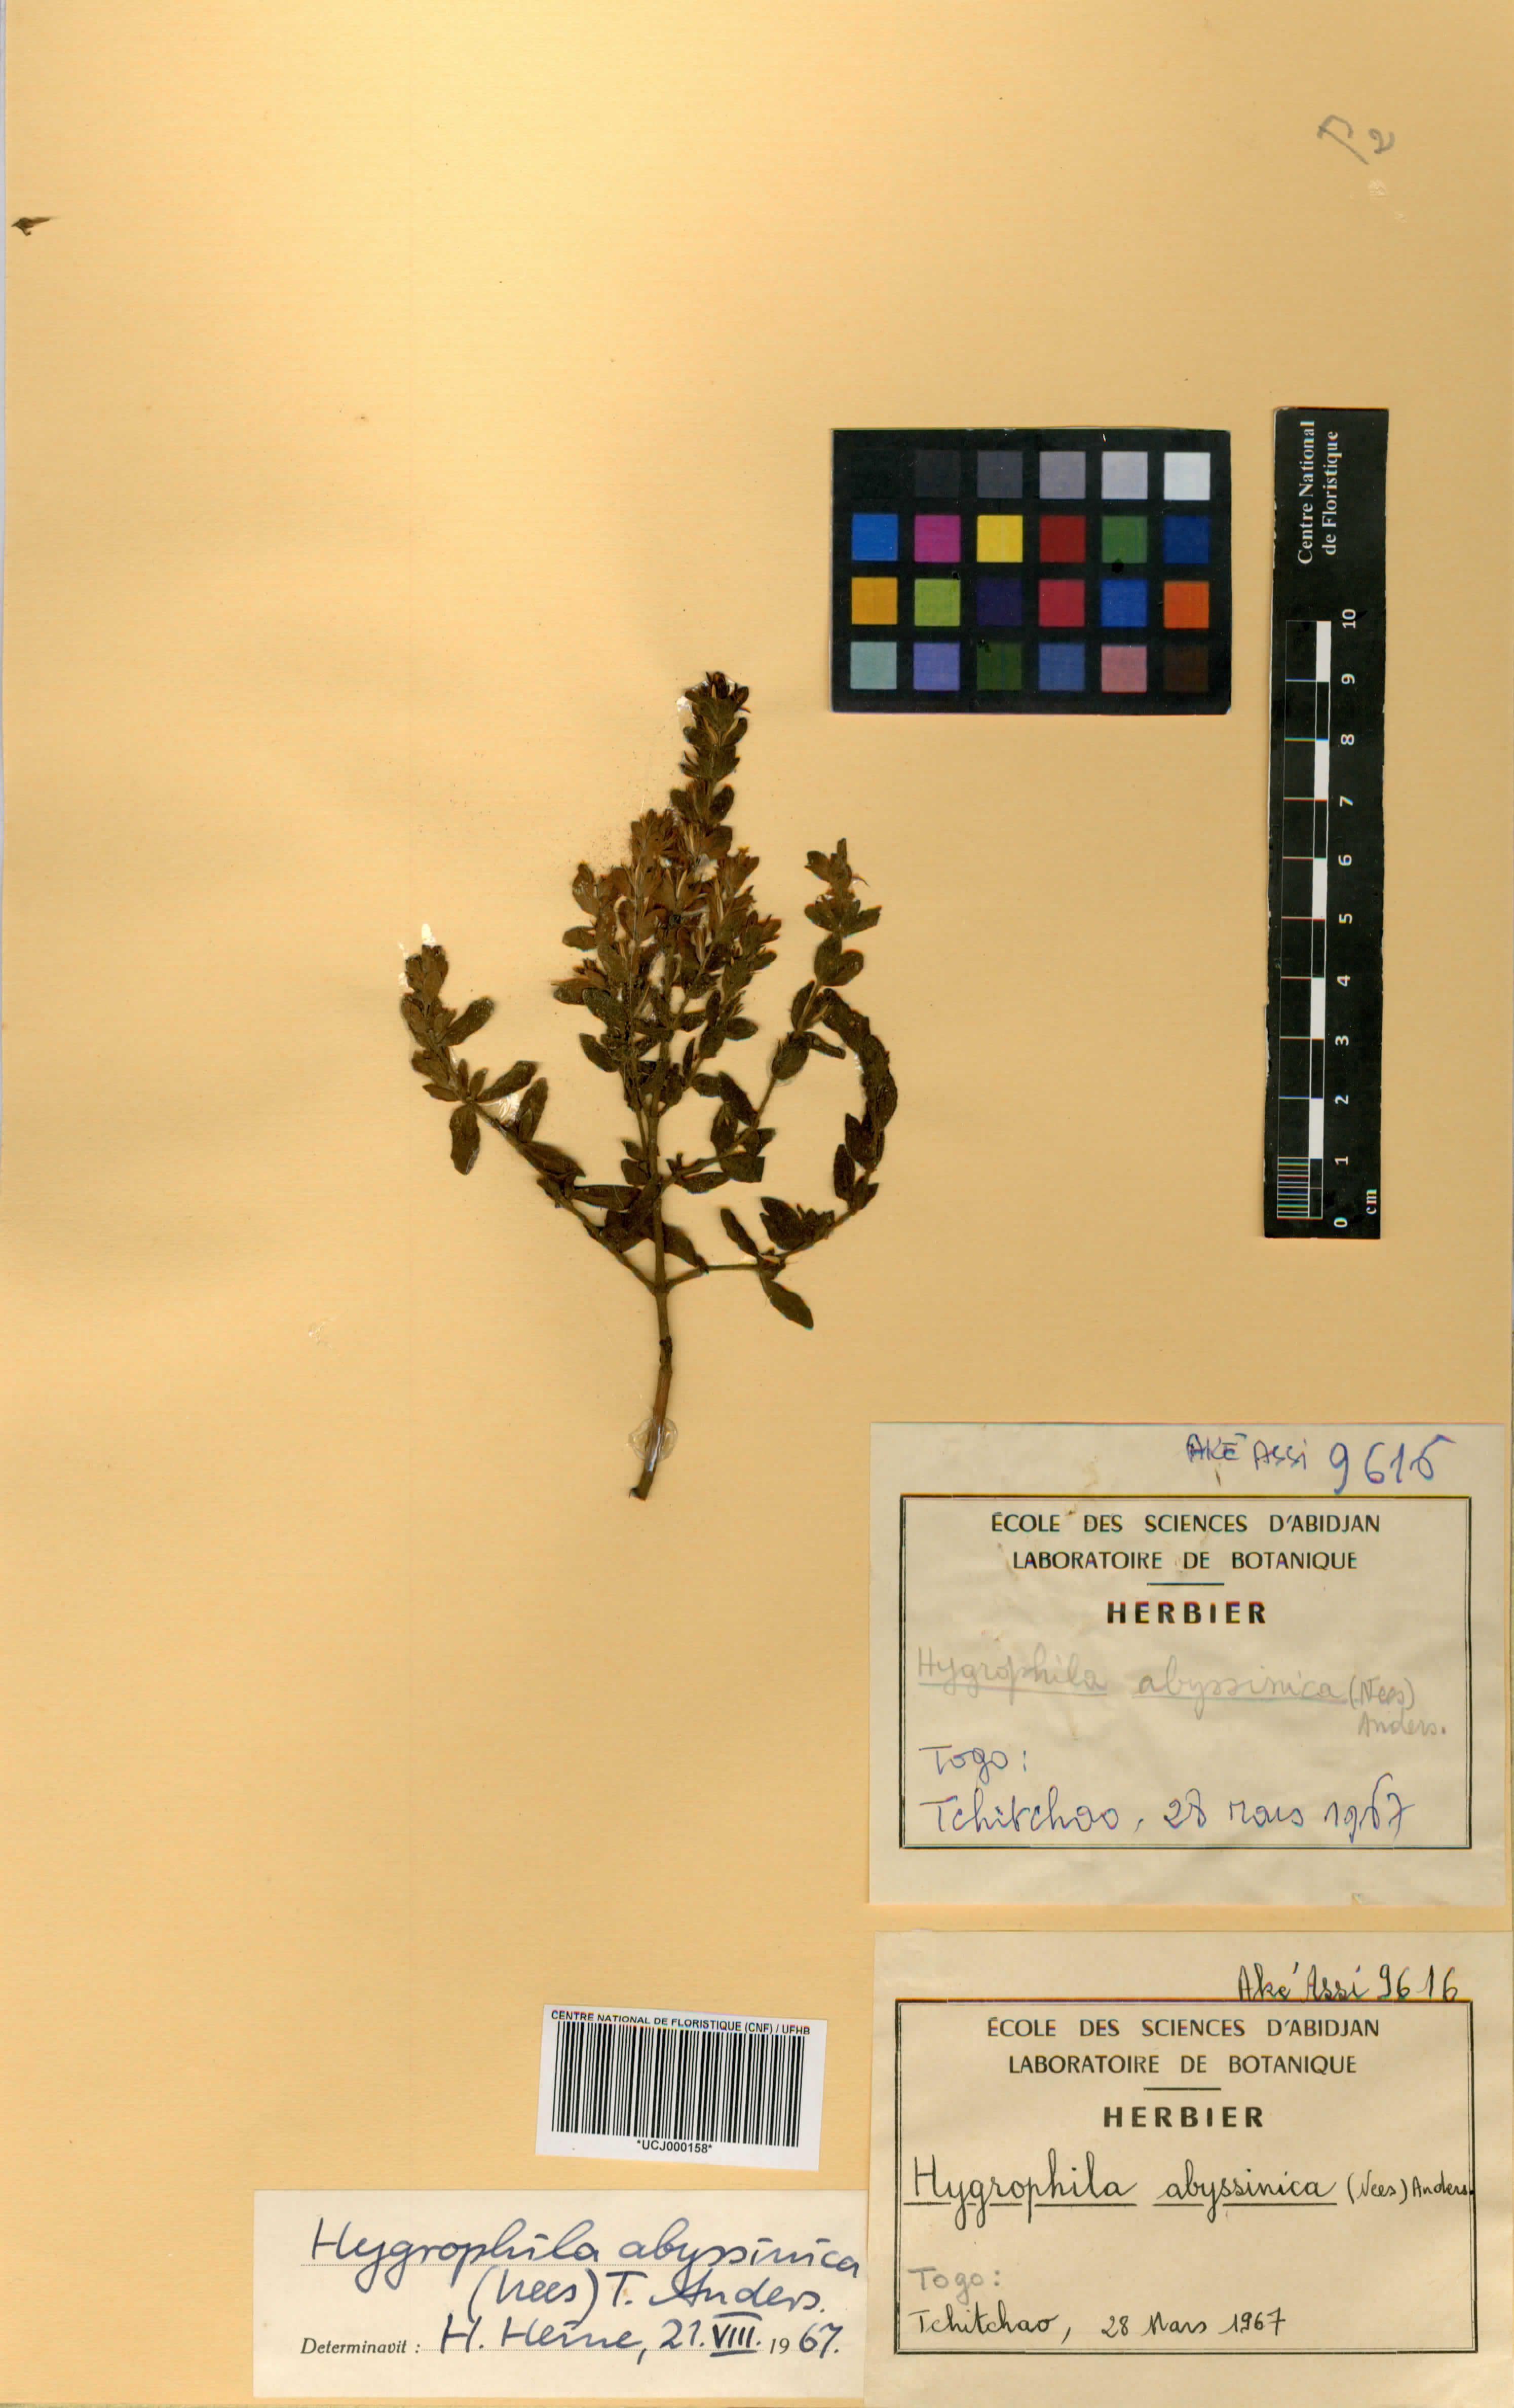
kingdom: Plantae
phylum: Tracheophyta
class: Magnoliopsida
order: Lamiales
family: Acanthaceae
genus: Hygrophila
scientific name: Hygrophila abyssinica
